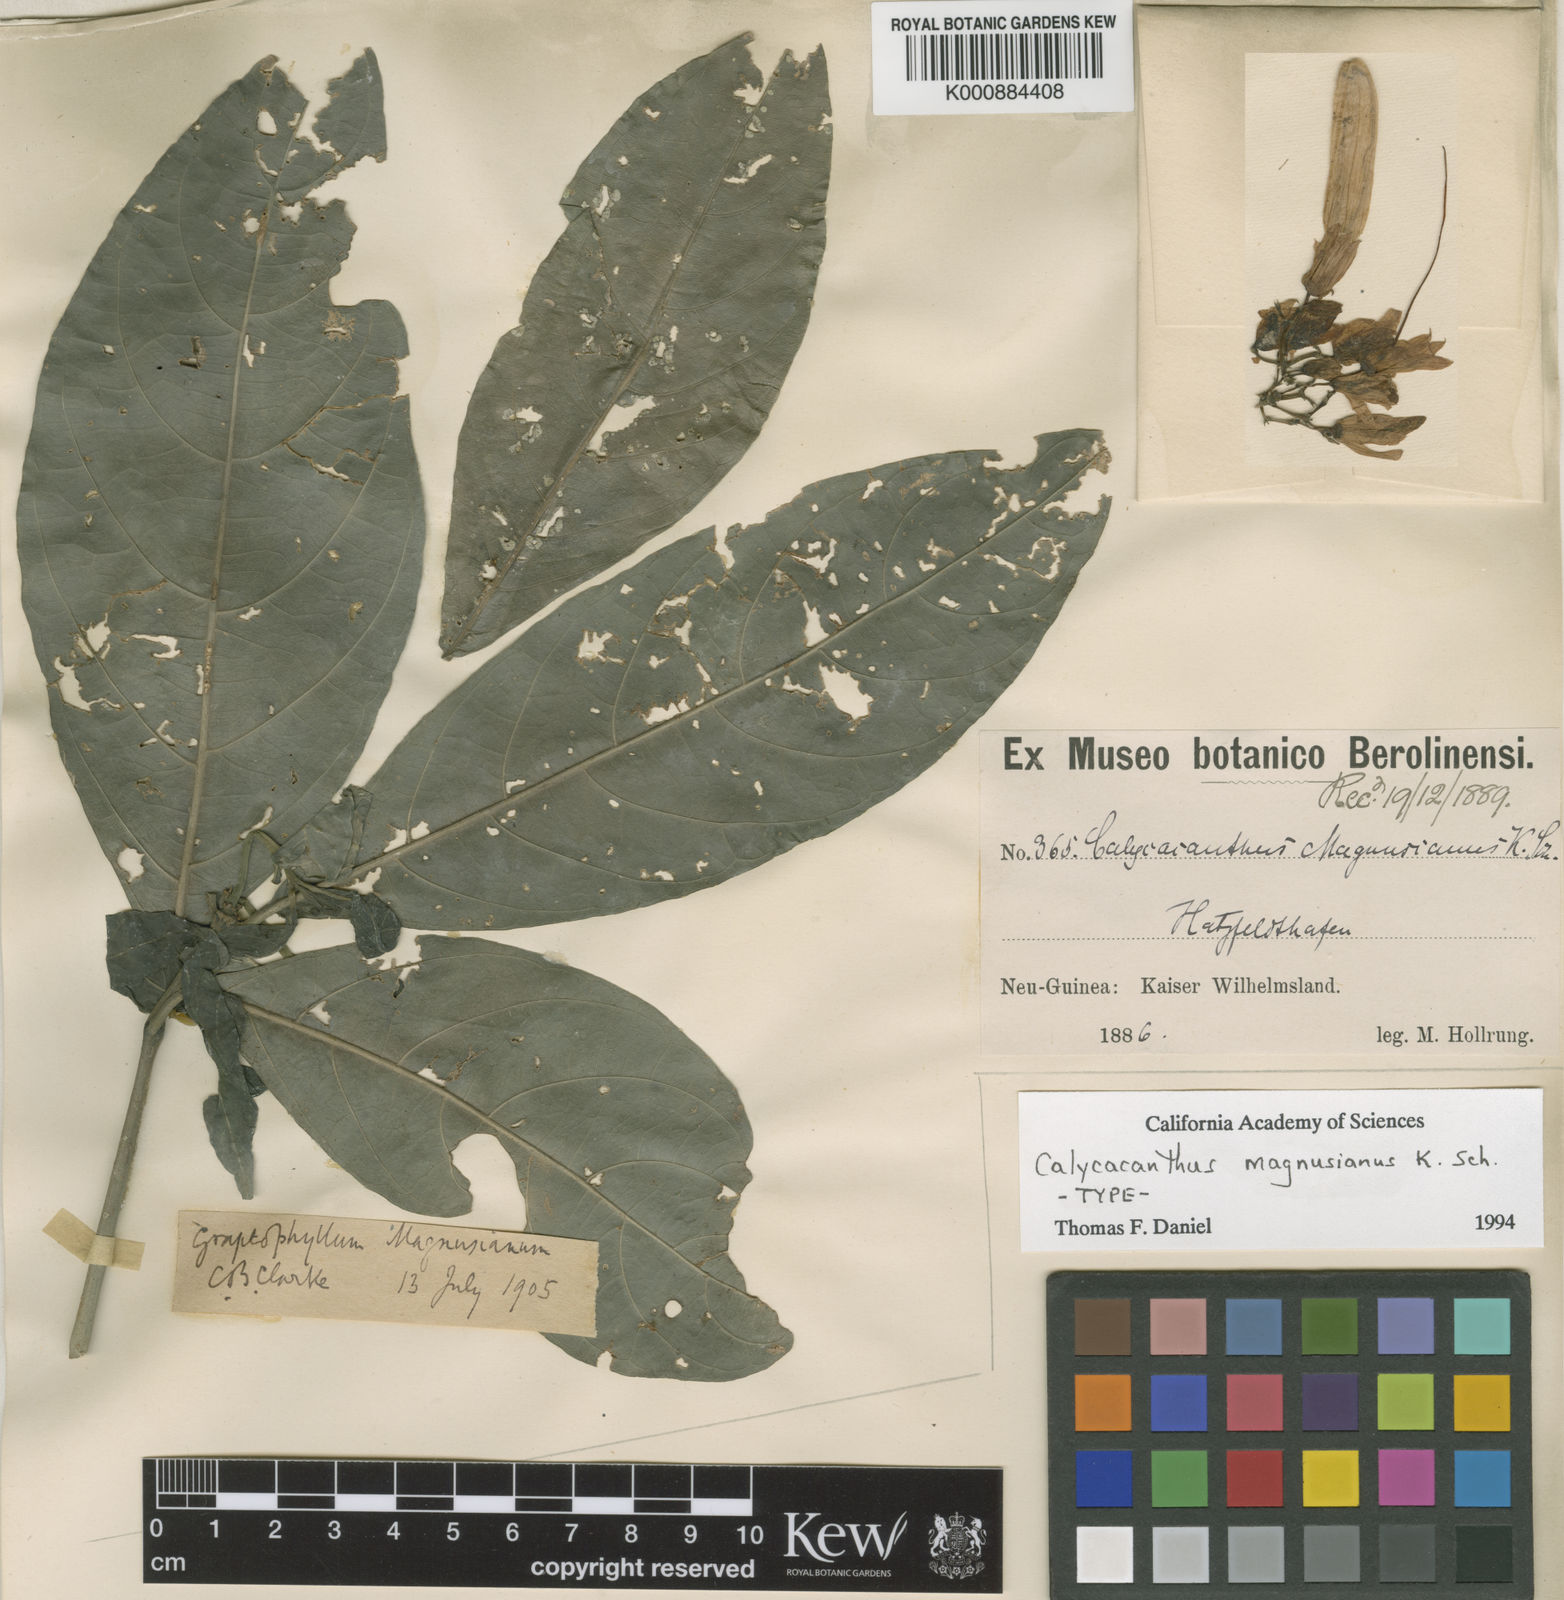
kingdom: Plantae
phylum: Tracheophyta
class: Magnoliopsida
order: Lamiales
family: Acanthaceae
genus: Calycacanthus
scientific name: Calycacanthus magnusianus
